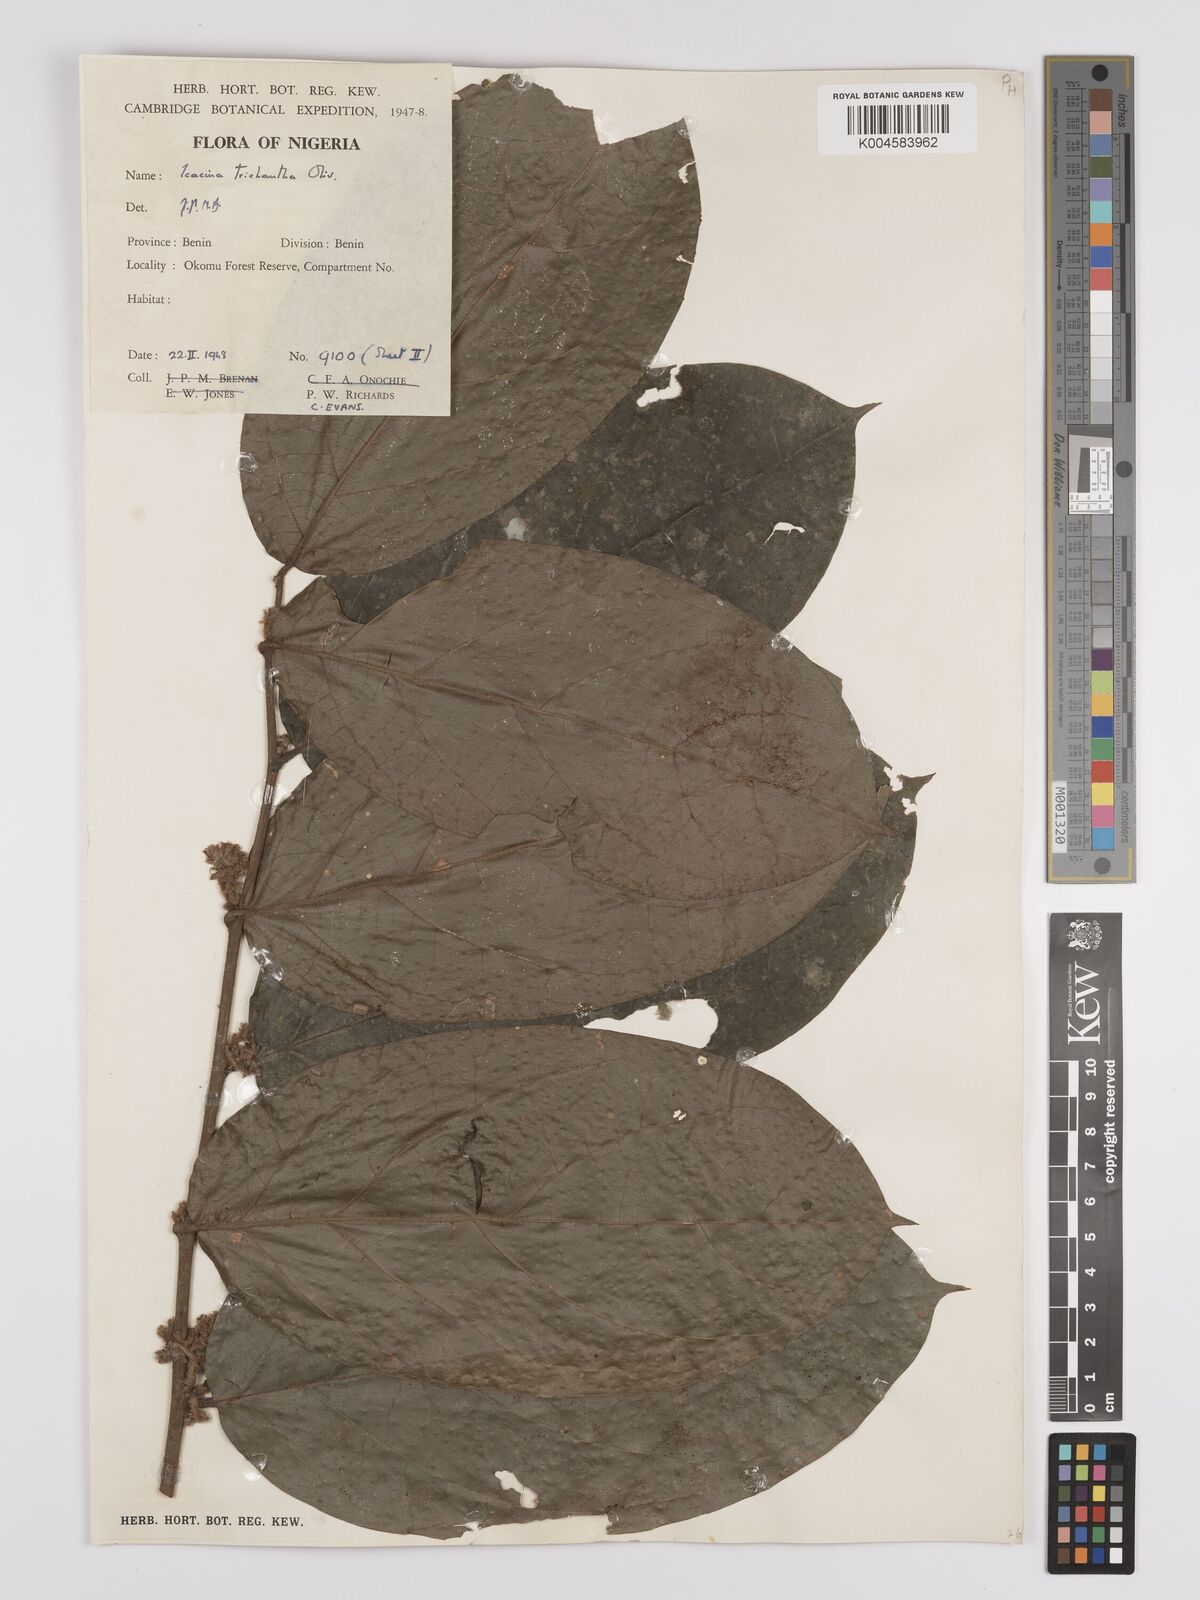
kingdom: Plantae
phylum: Tracheophyta
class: Magnoliopsida
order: Icacinales
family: Icacinaceae
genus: Icacina
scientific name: Icacina trichantha
